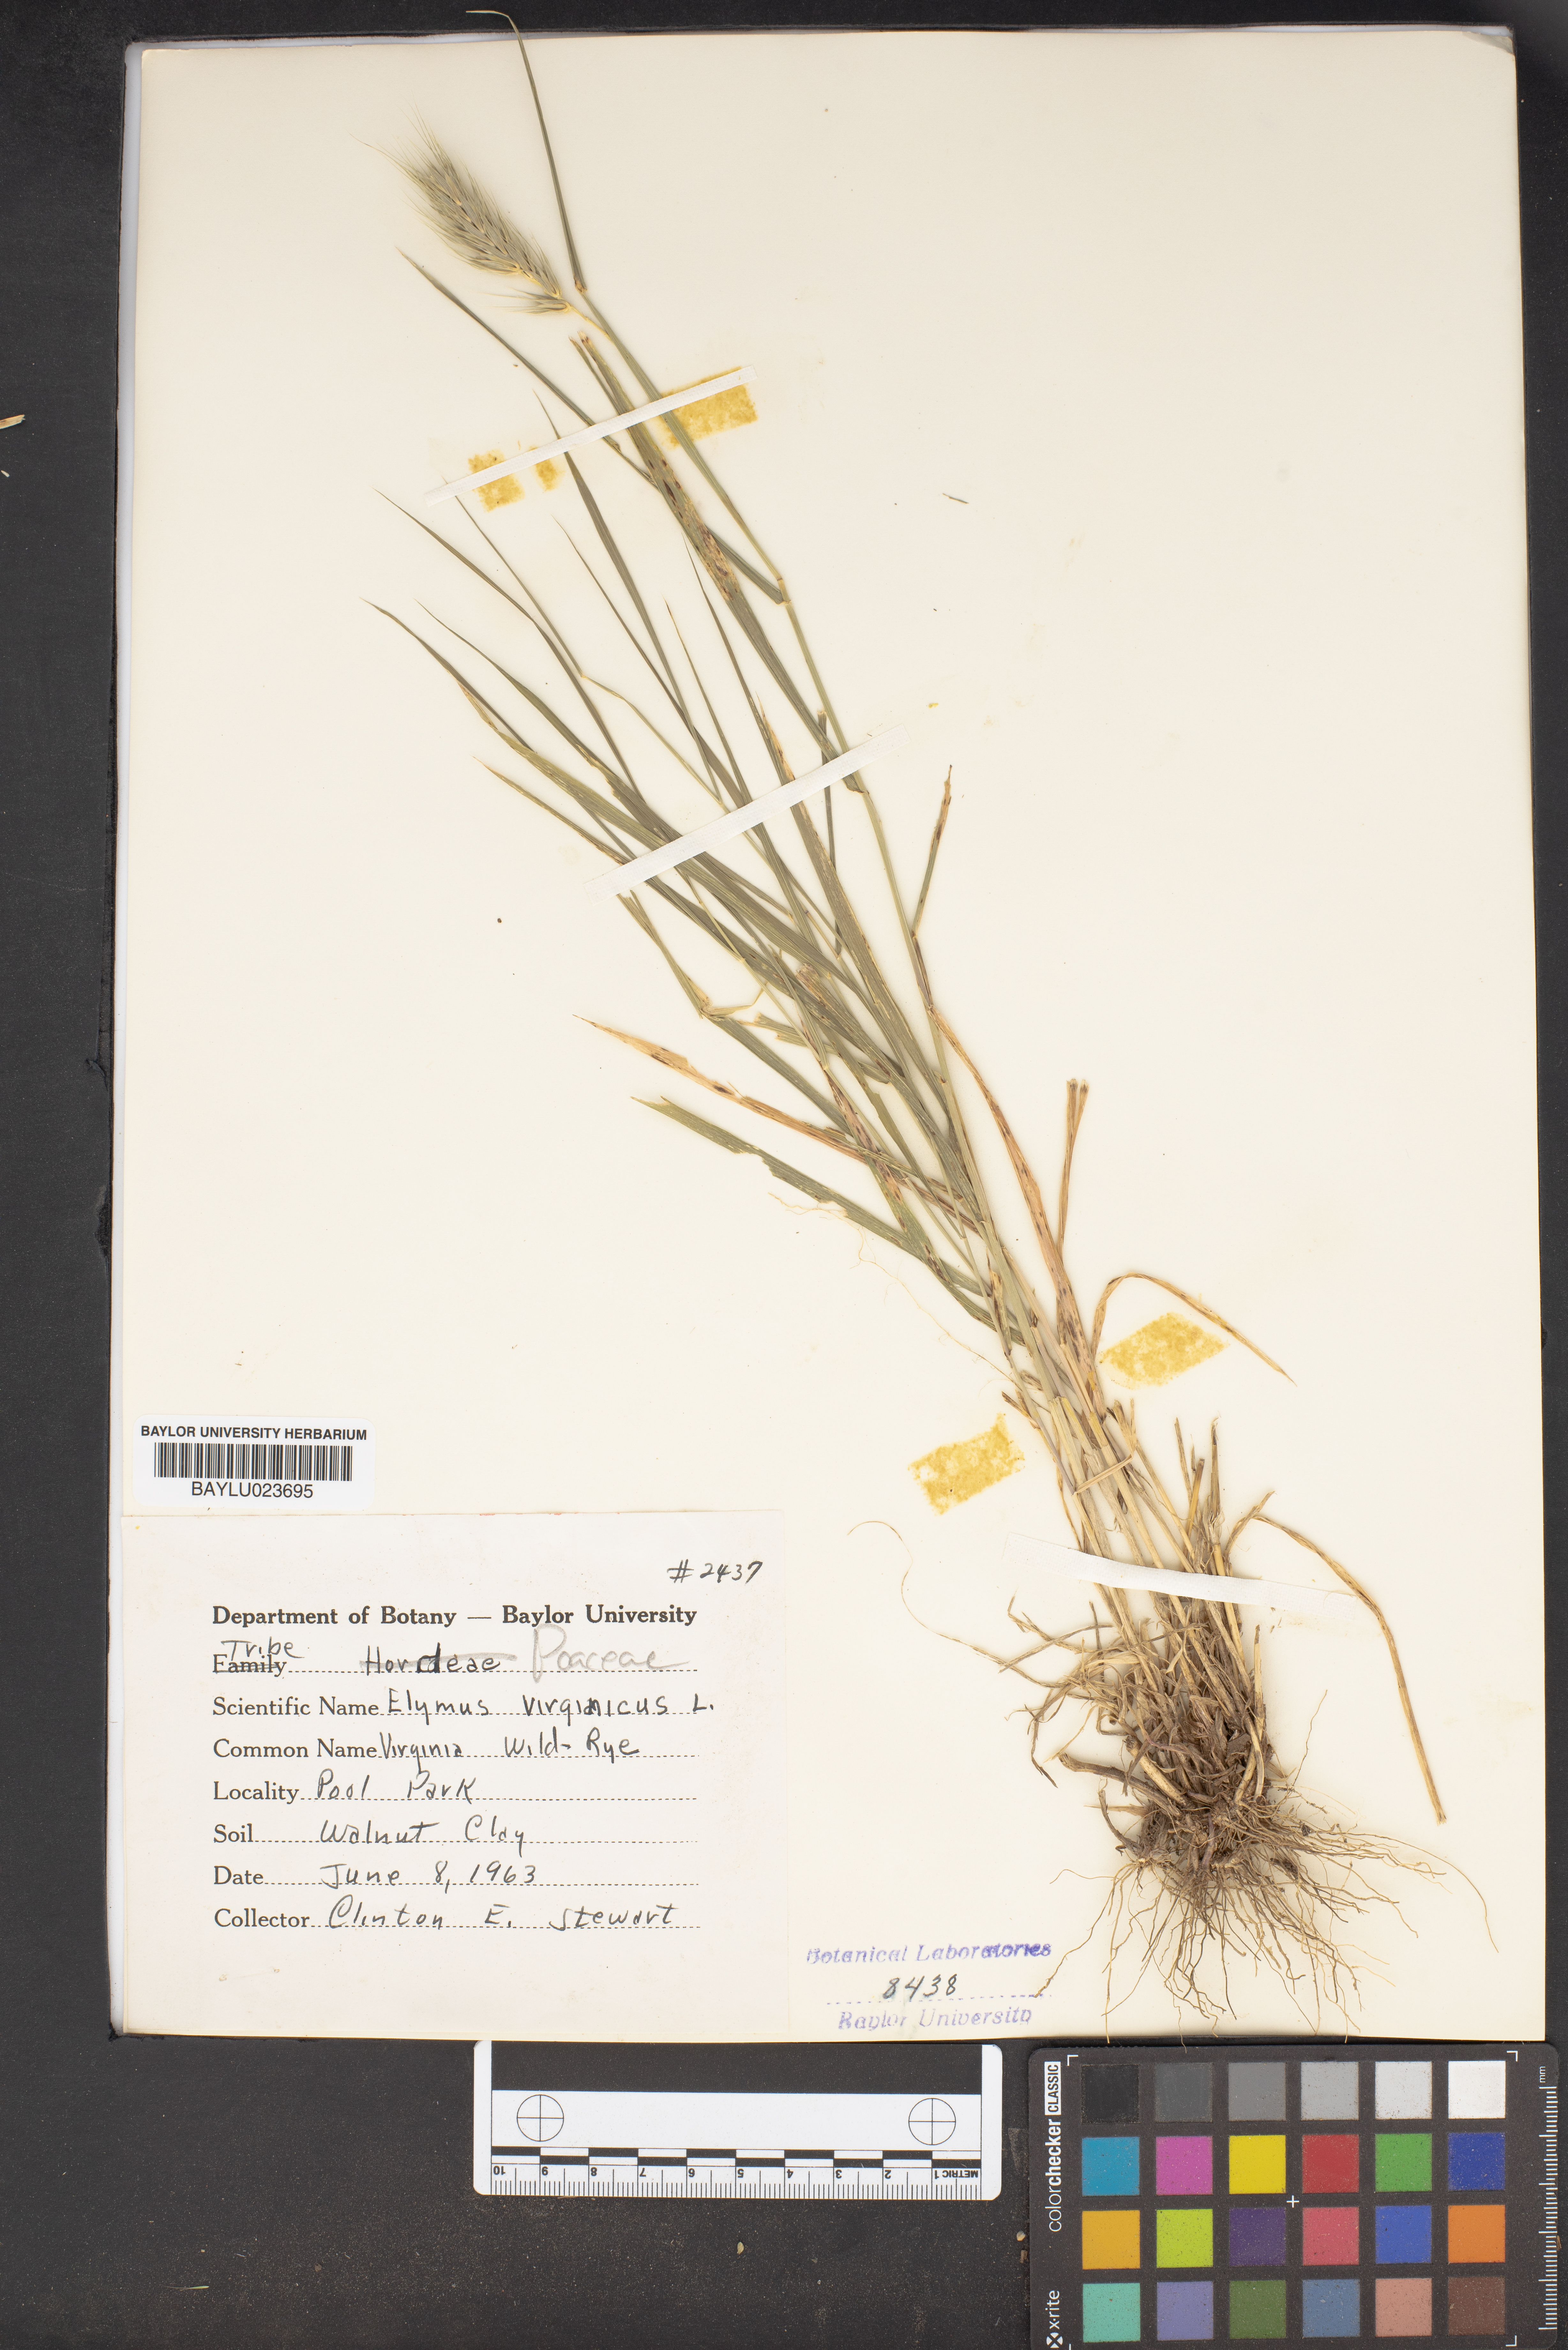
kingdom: Plantae
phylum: Tracheophyta
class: Liliopsida
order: Poales
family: Poaceae
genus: Elymus
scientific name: Elymus virginicus
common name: Common eastern wildrye
